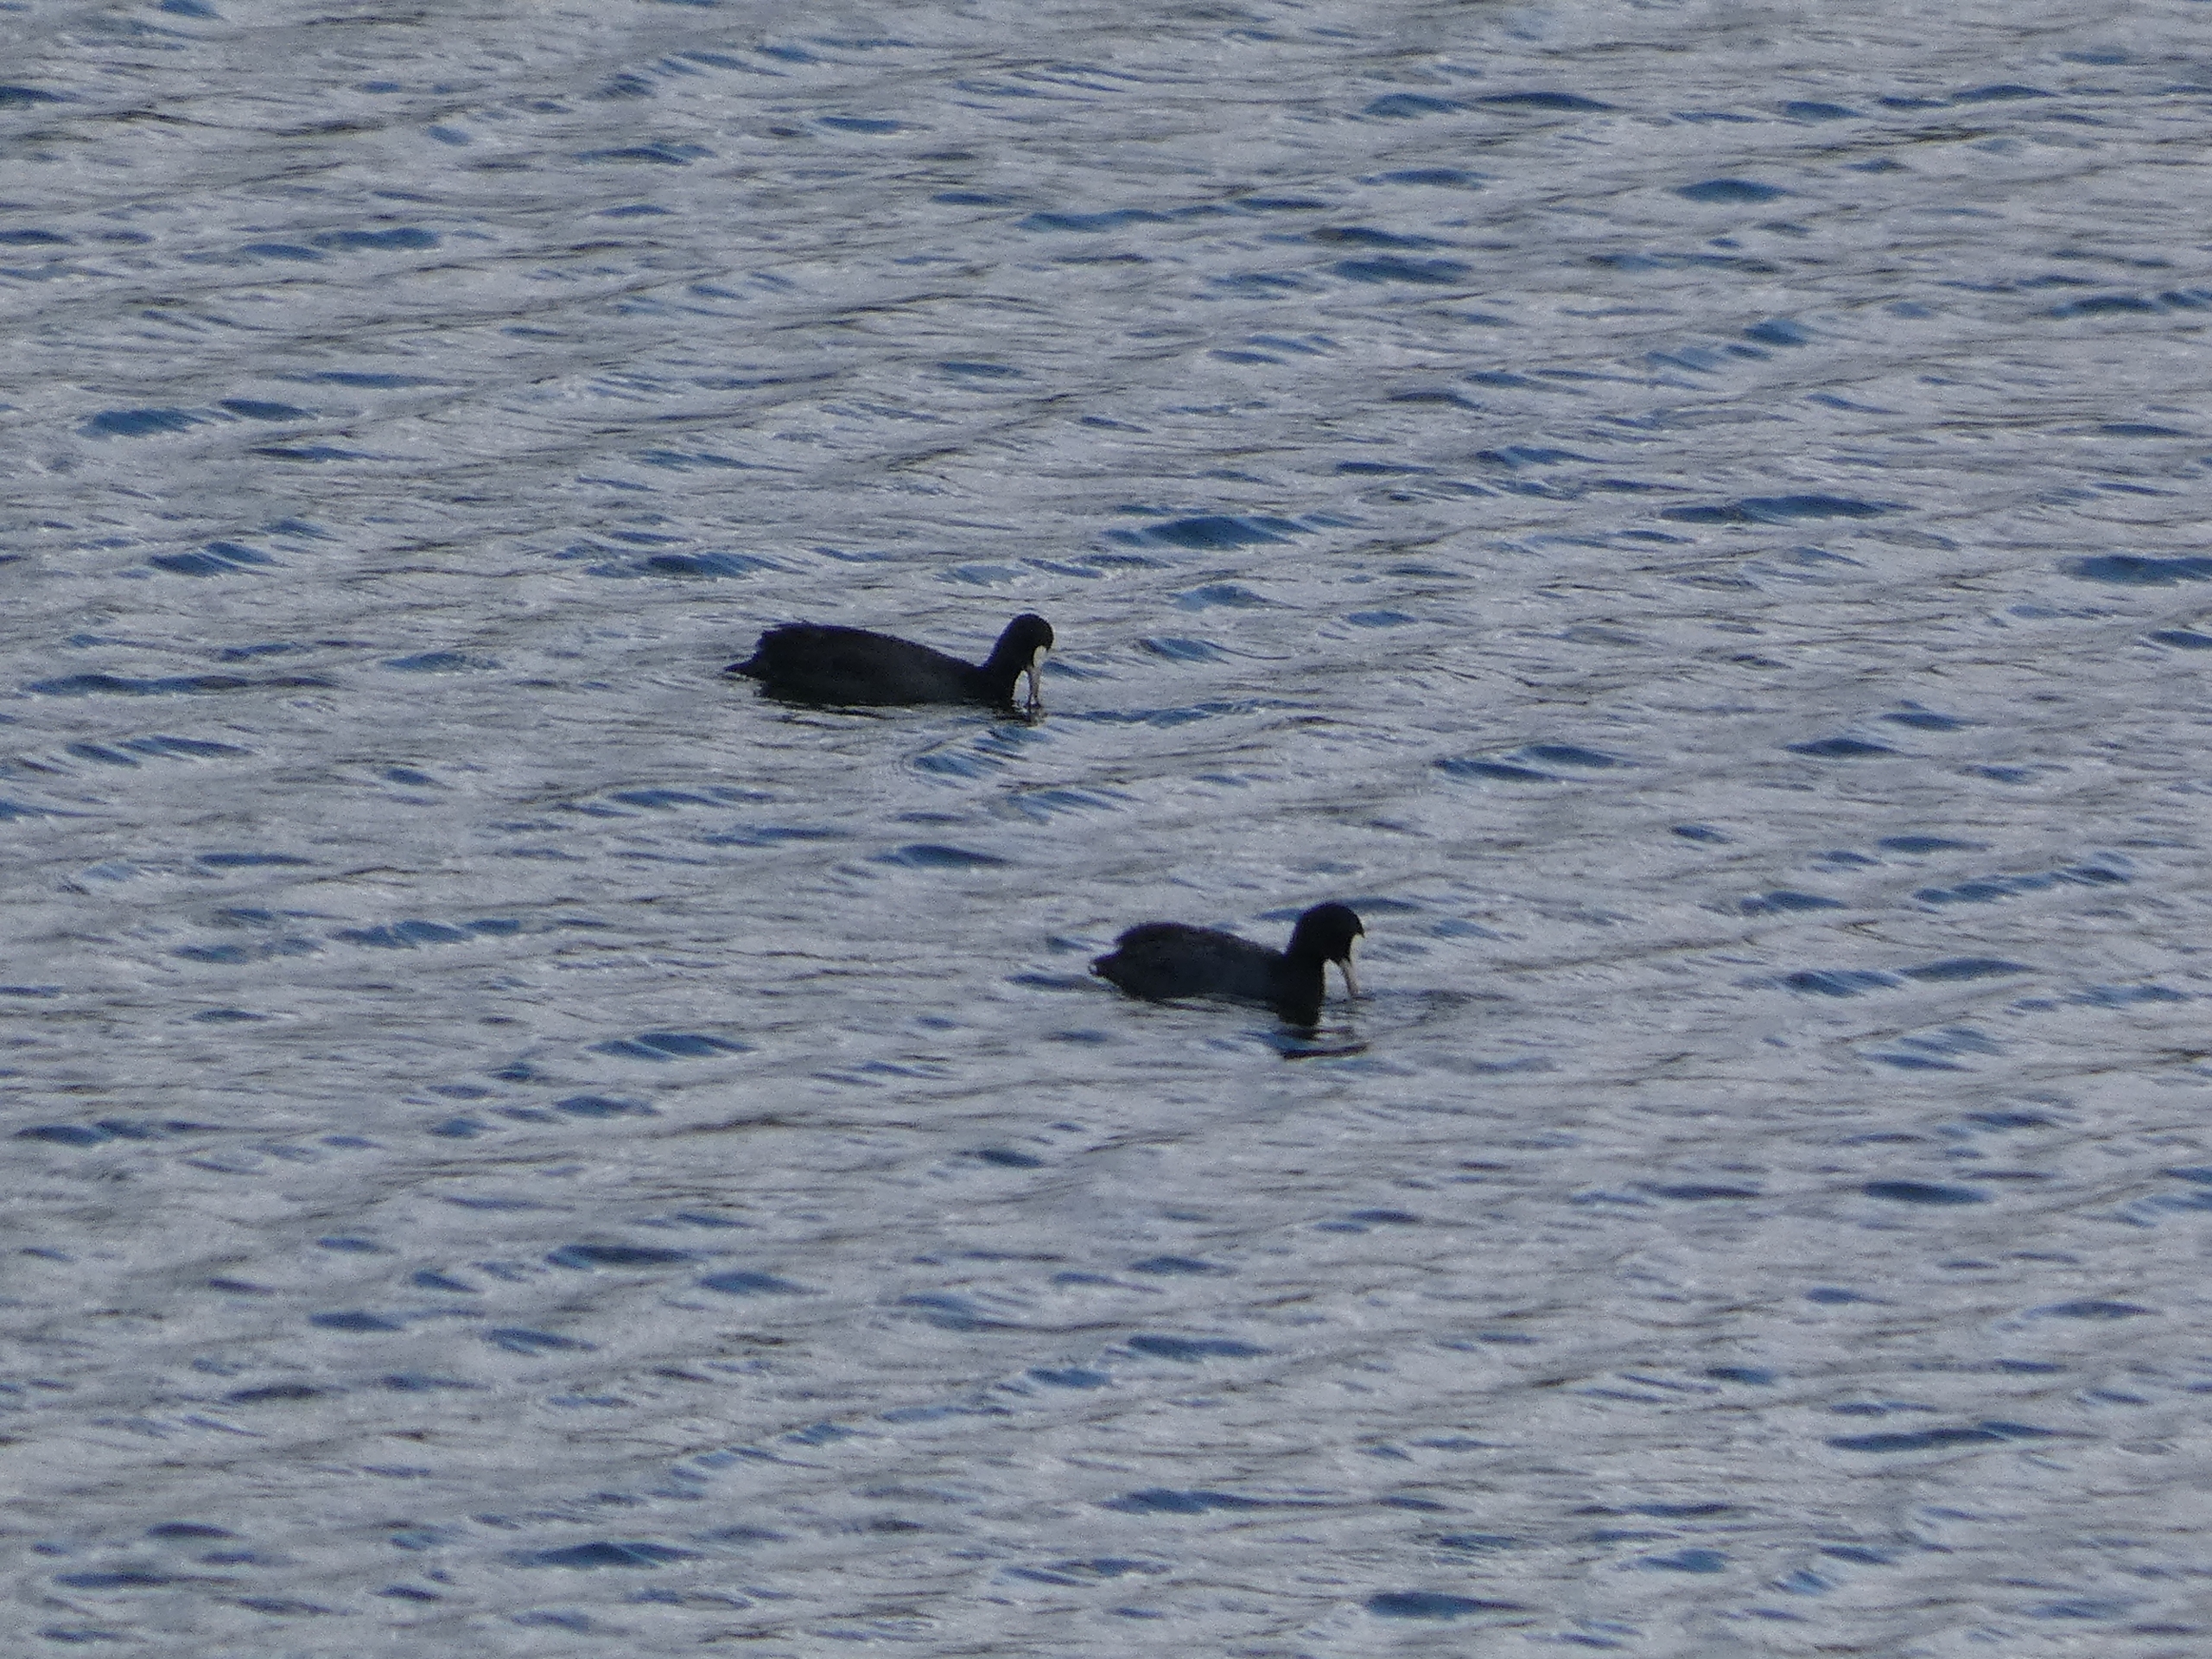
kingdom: Animalia
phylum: Chordata
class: Aves
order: Gruiformes
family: Rallidae
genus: Fulica
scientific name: Fulica atra
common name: Blishøne
